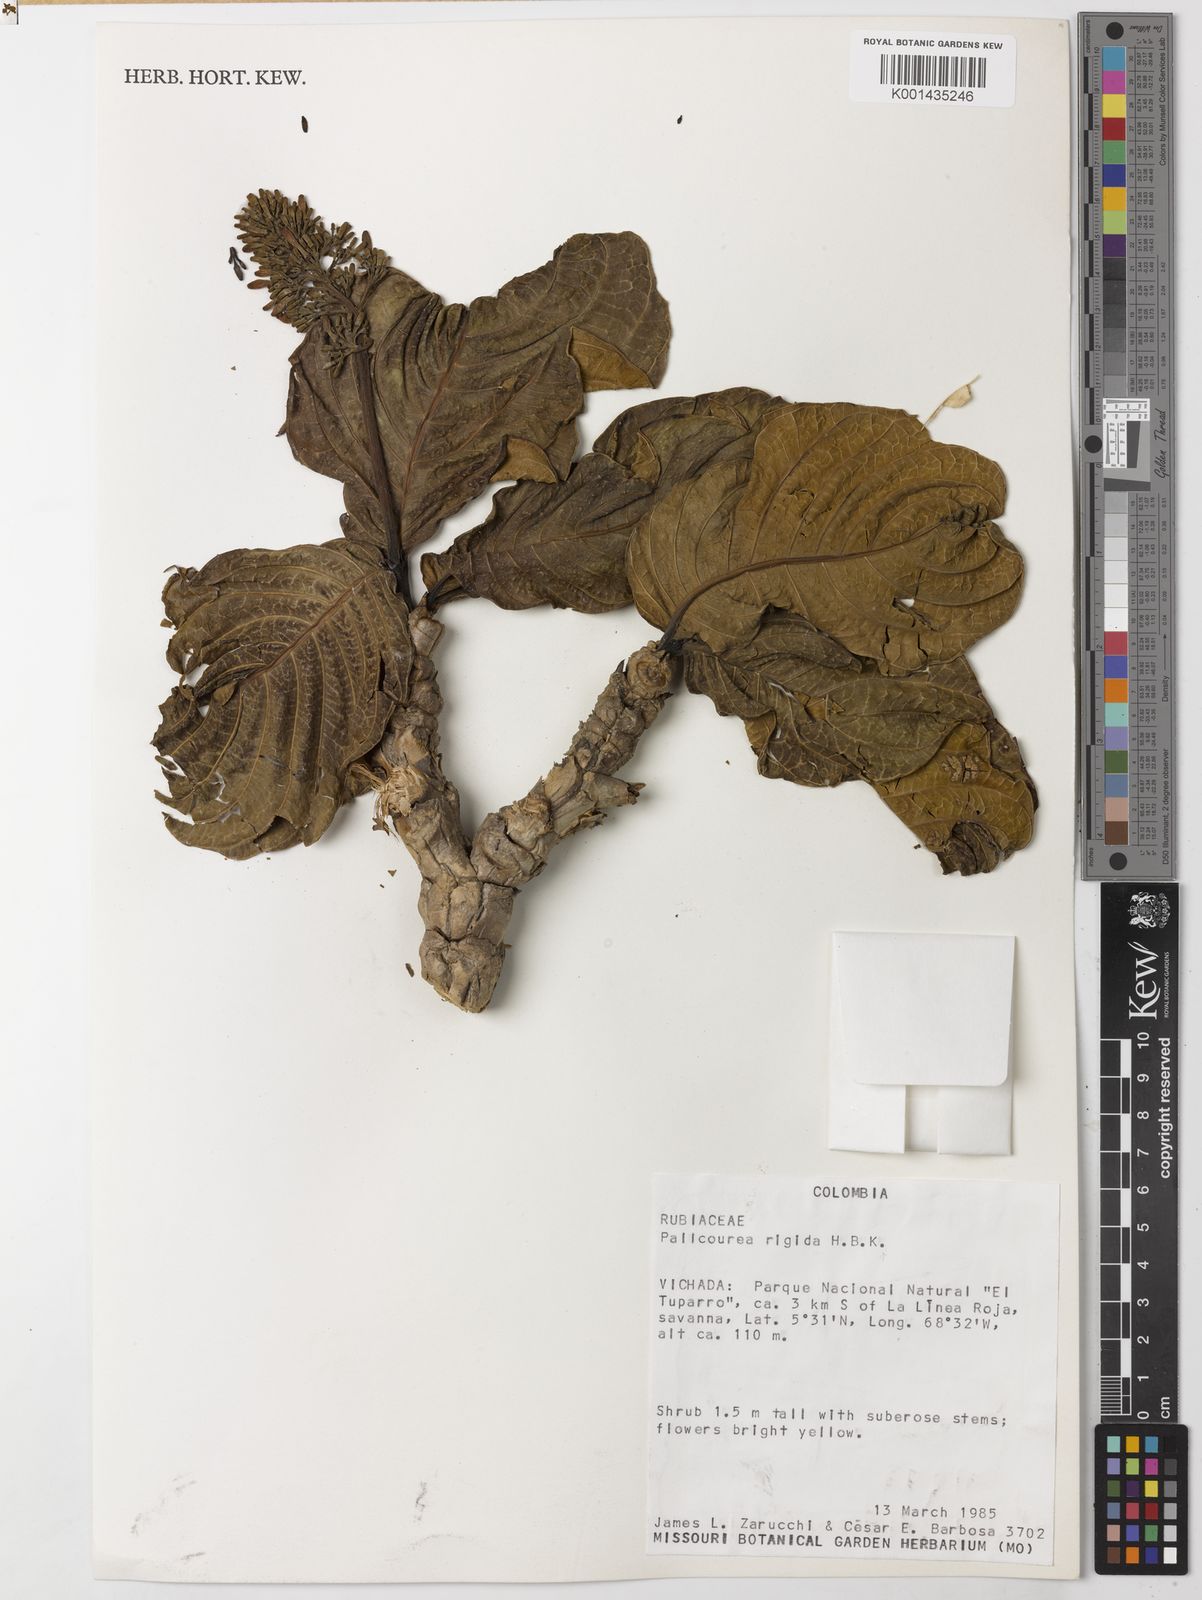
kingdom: Plantae
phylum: Tracheophyta
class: Magnoliopsida
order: Gentianales
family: Rubiaceae
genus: Palicourea
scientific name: Palicourea rigida
